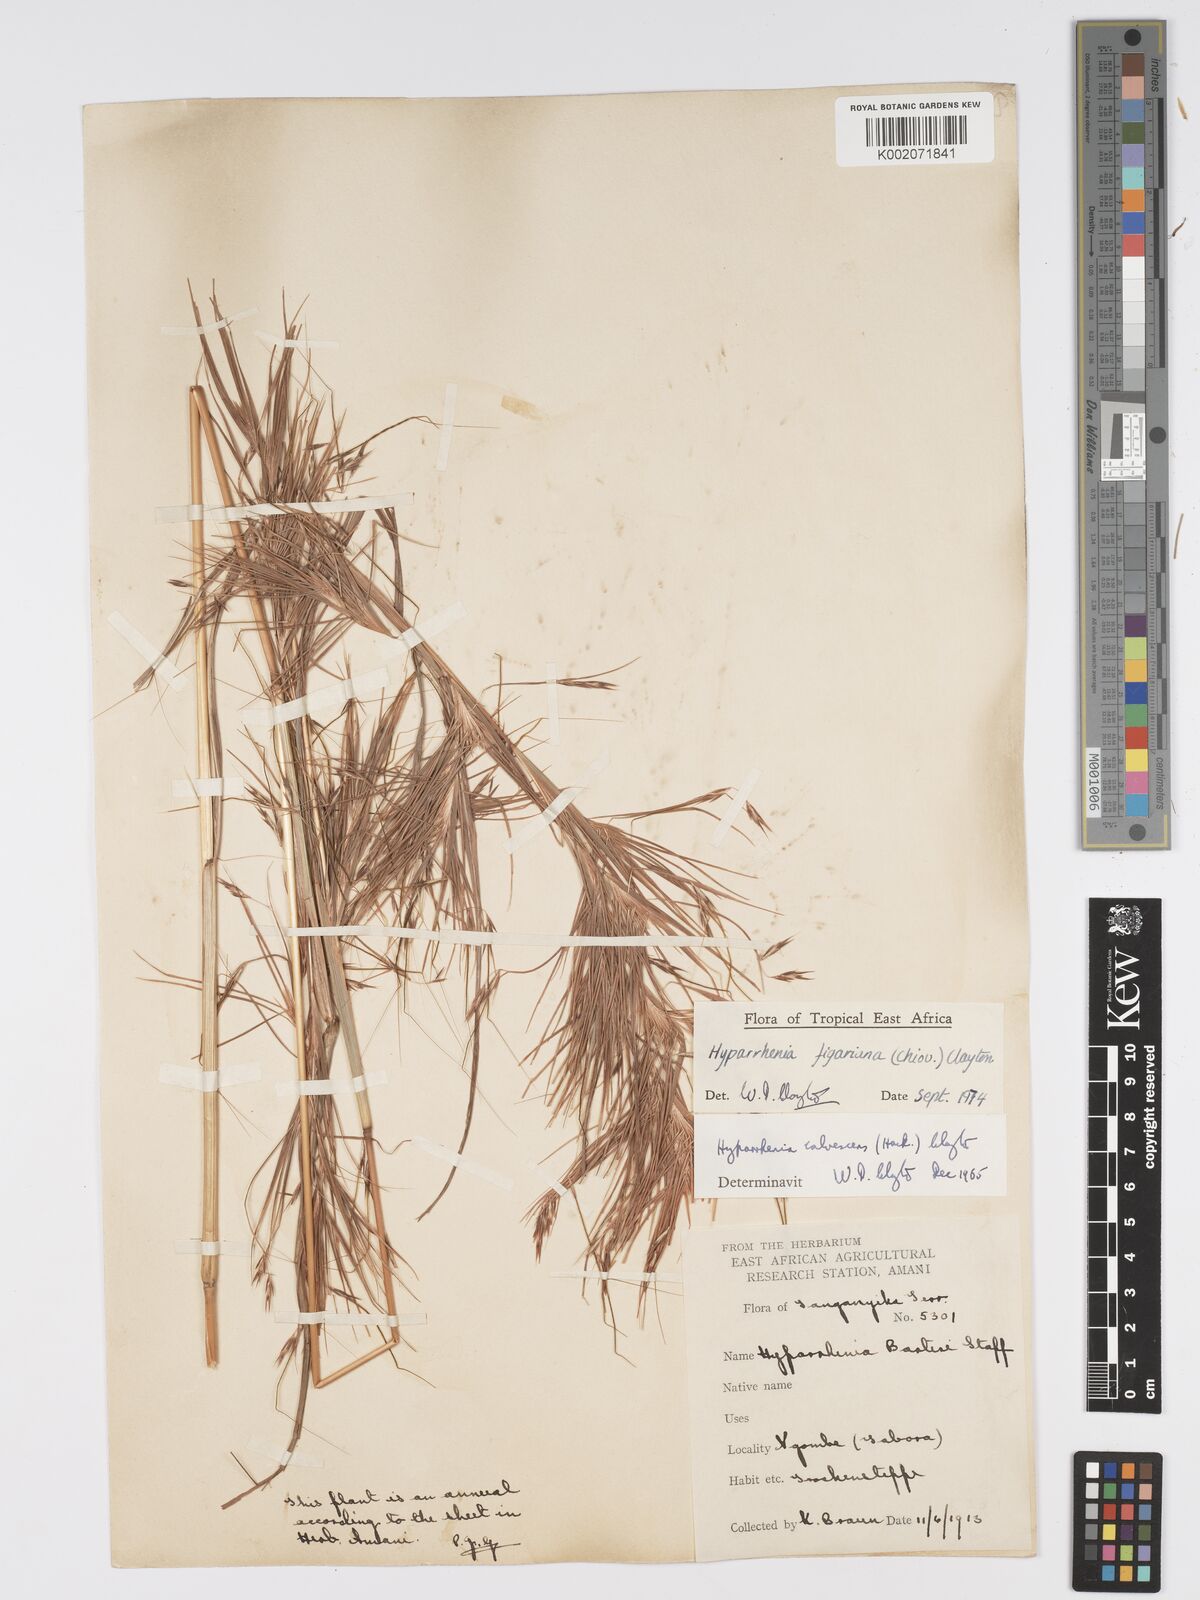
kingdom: Plantae
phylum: Tracheophyta
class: Liliopsida
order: Poales
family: Poaceae
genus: Hyparrhenia
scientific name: Hyparrhenia figariana
